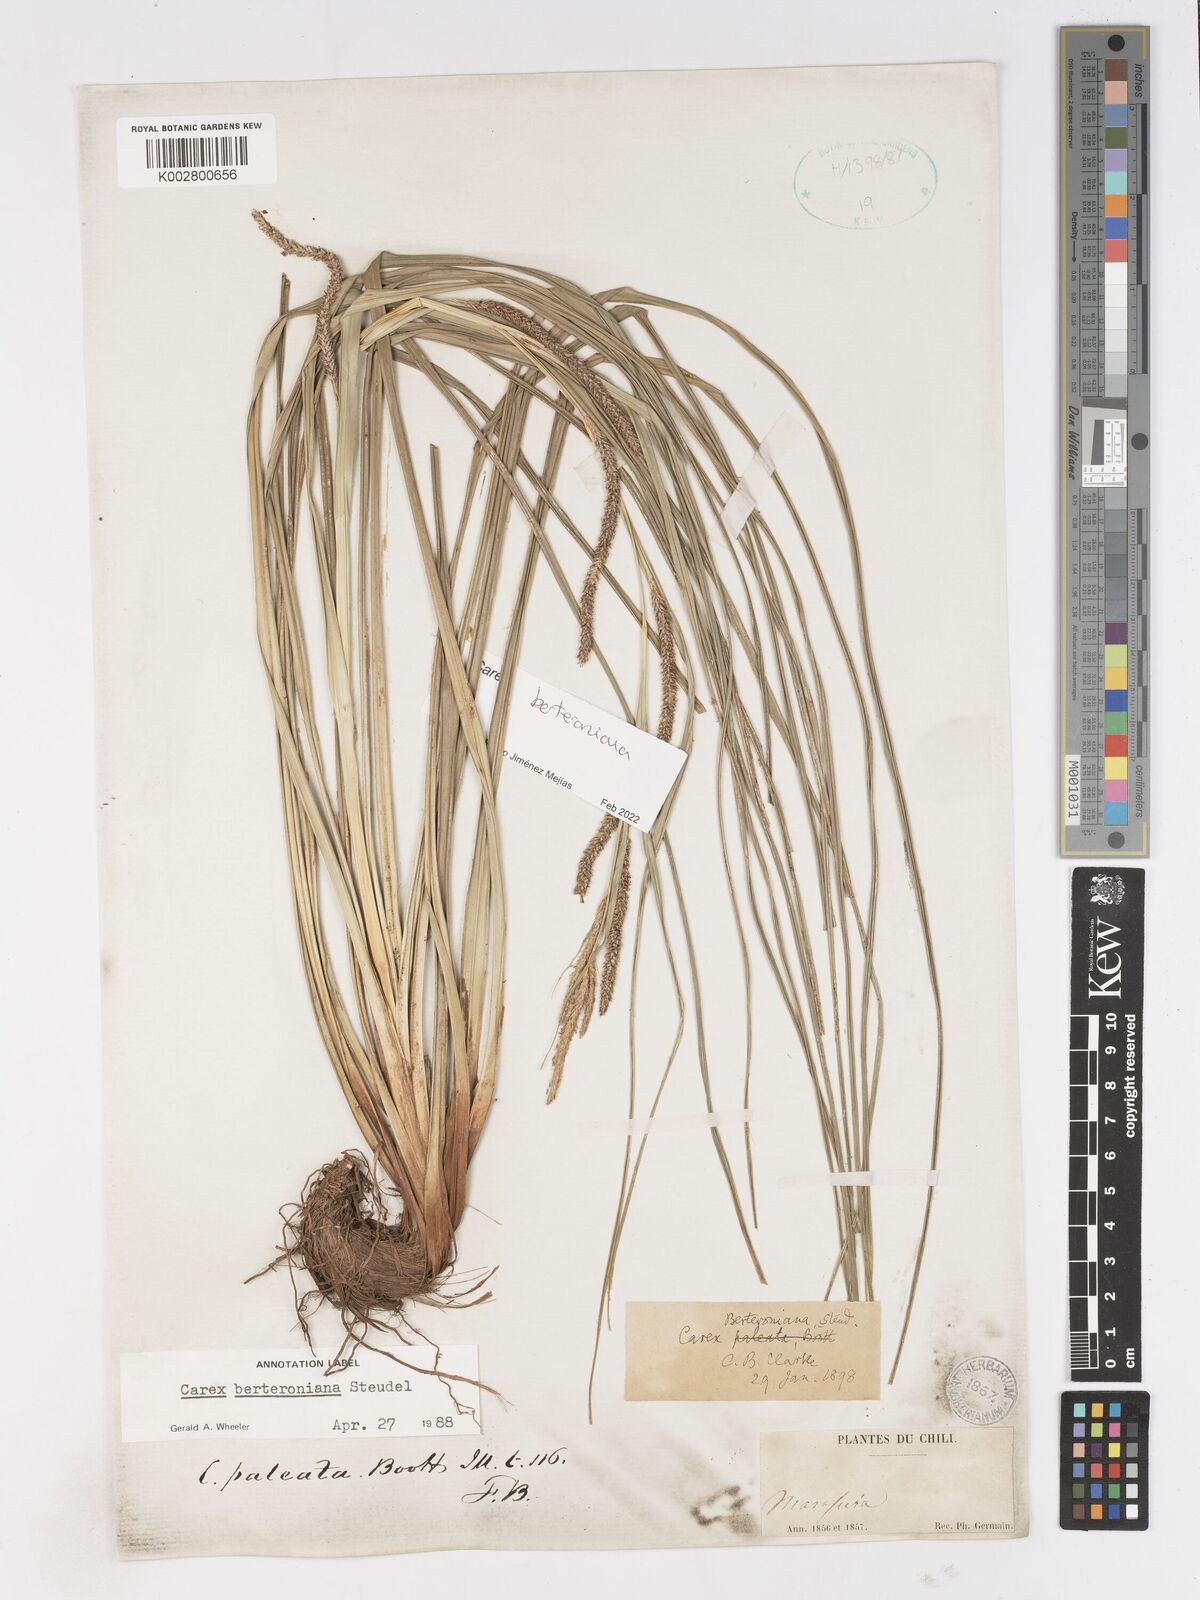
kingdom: Plantae
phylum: Tracheophyta
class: Liliopsida
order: Poales
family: Cyperaceae
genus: Carex
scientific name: Carex berteroniana
